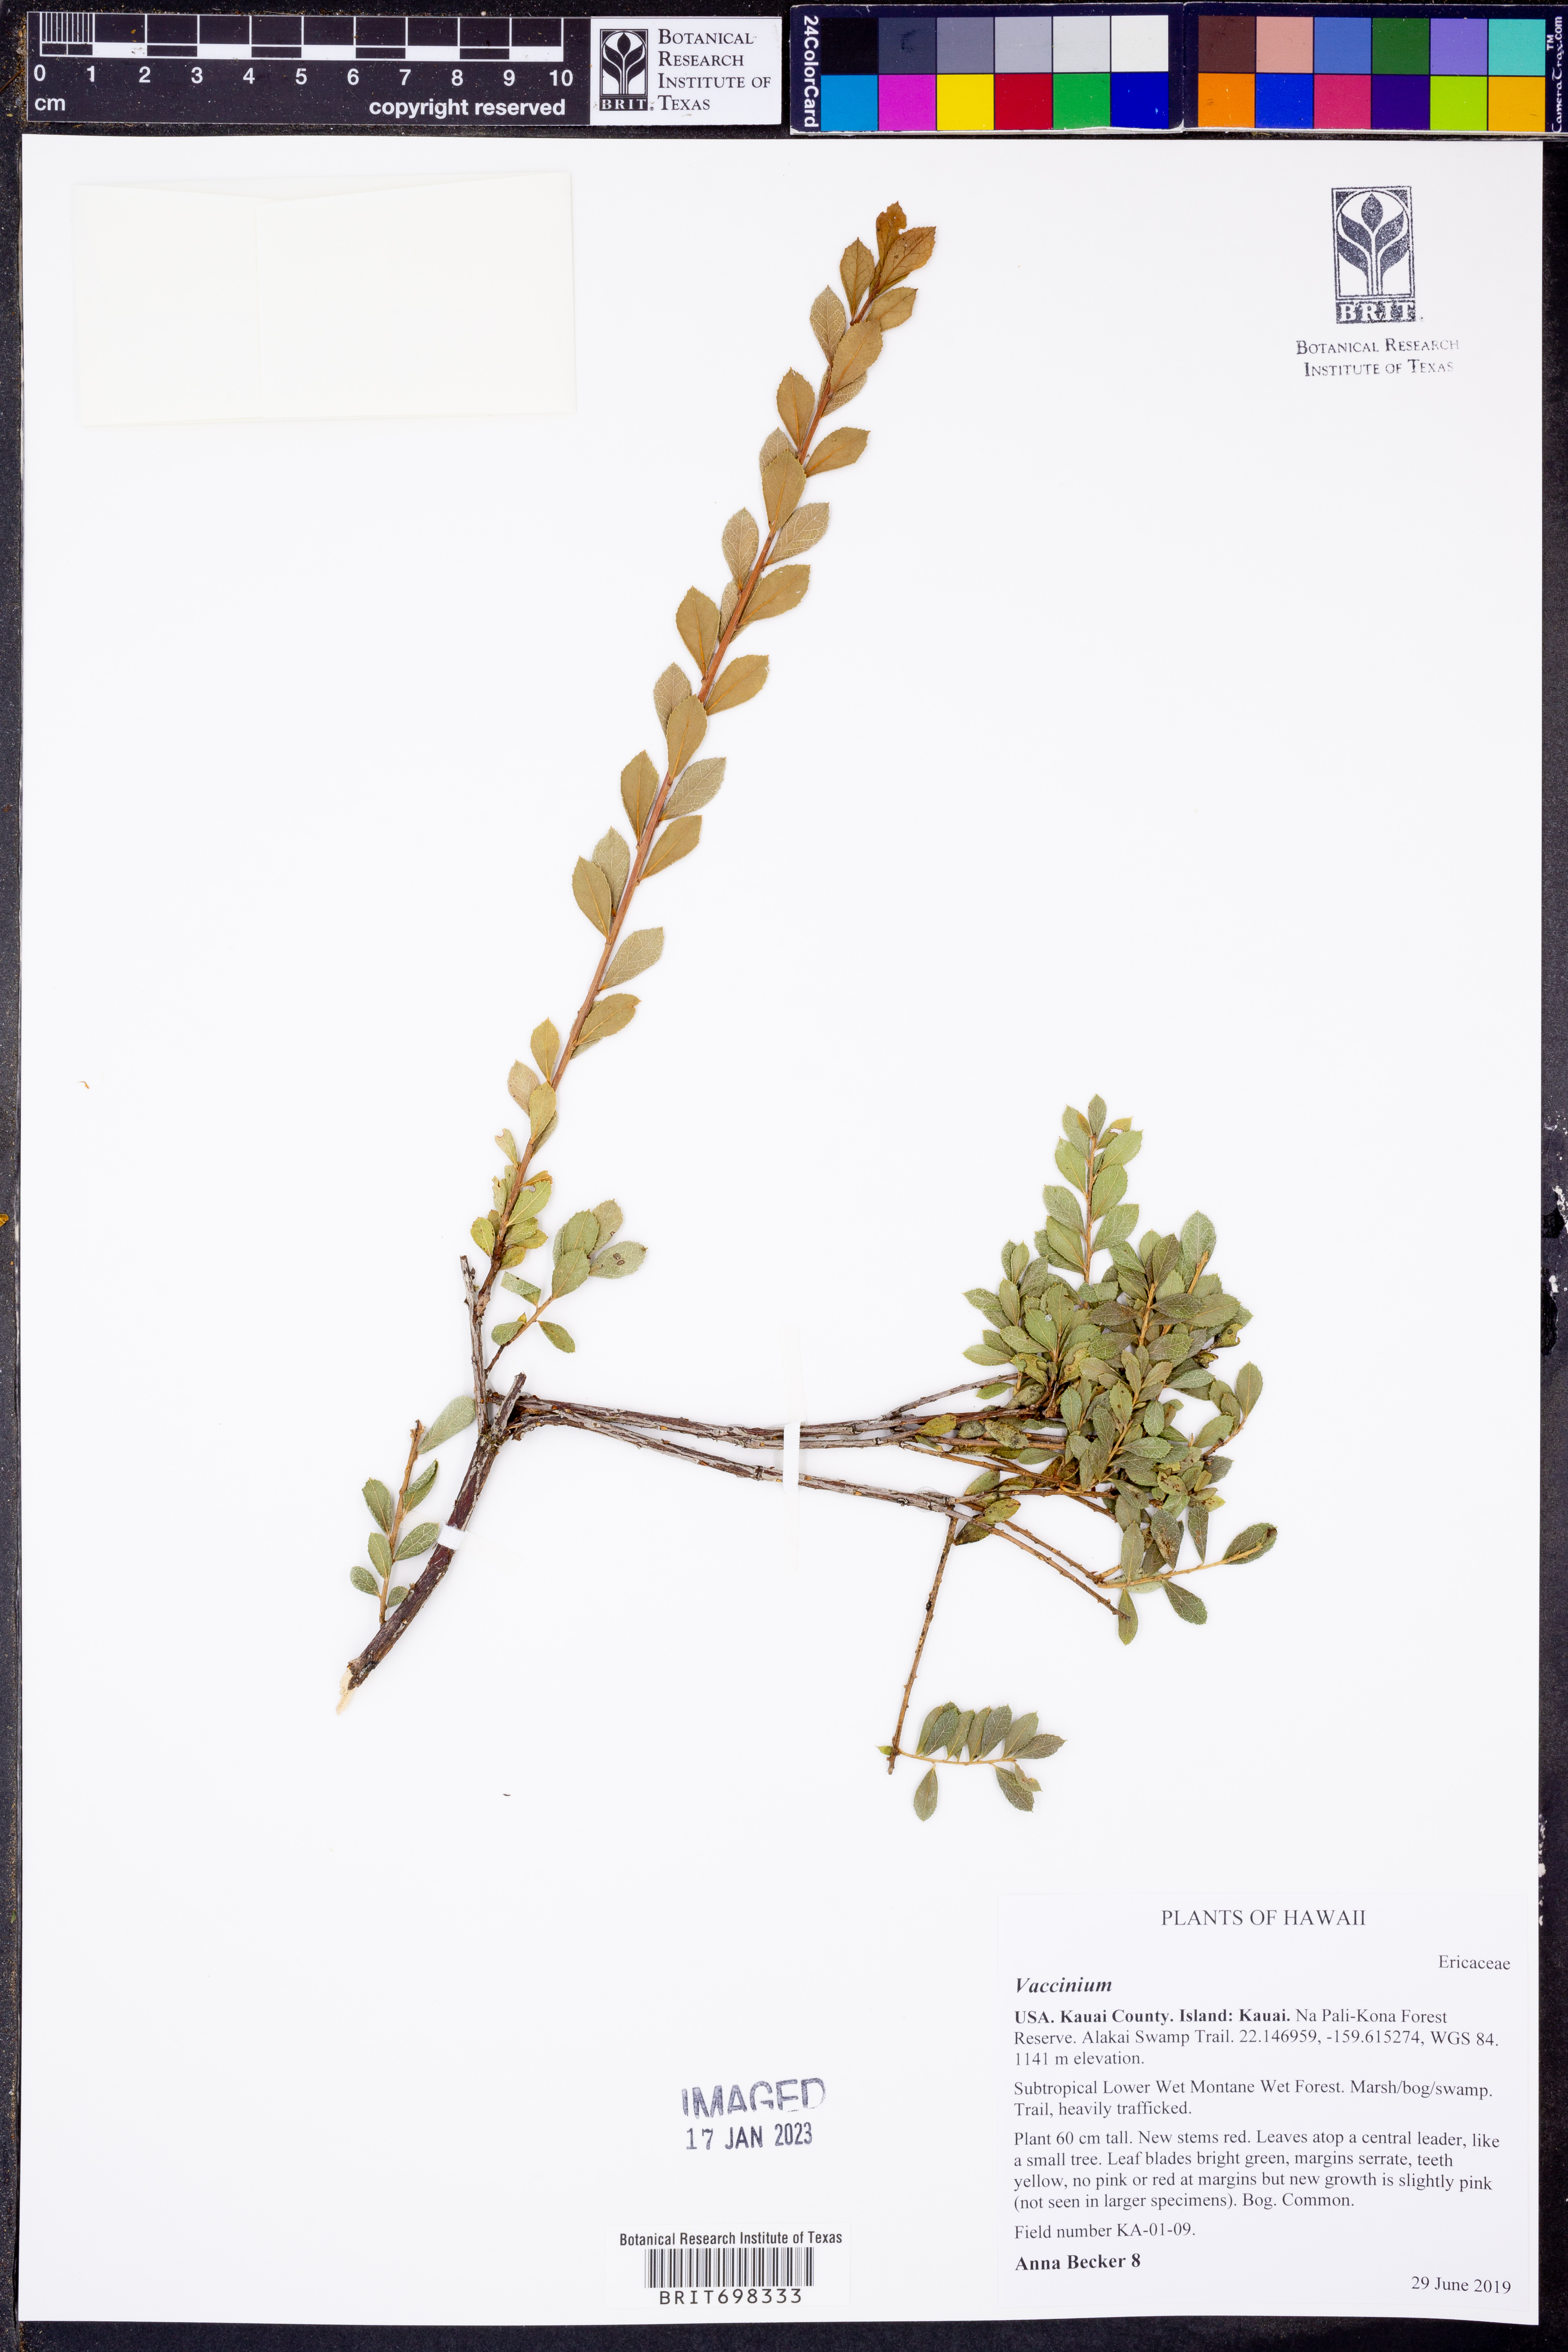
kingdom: Plantae
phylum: Tracheophyta
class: Magnoliopsida
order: Ericales
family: Ericaceae
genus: Vaccinium
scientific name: Vaccinium
